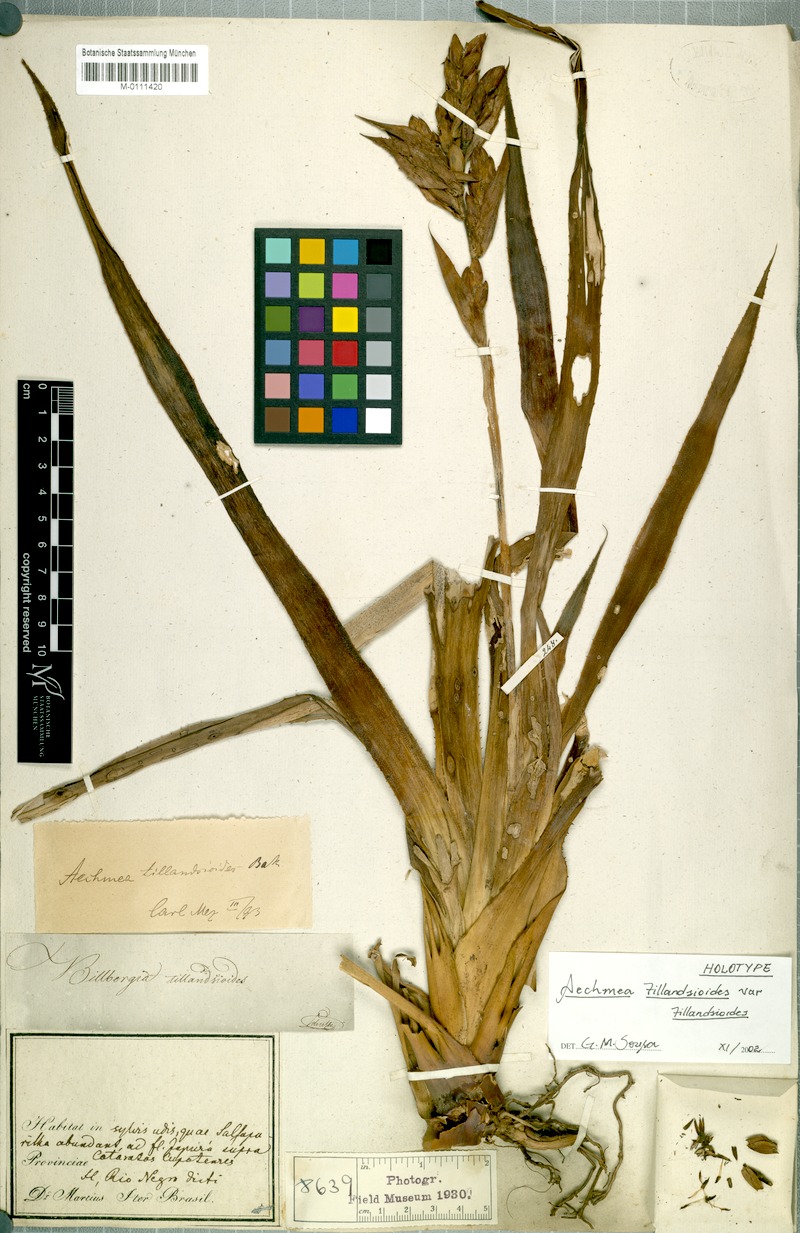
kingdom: Plantae
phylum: Tracheophyta
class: Liliopsida
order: Poales
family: Bromeliaceae
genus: Aechmea
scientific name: Aechmea tillandsioides
